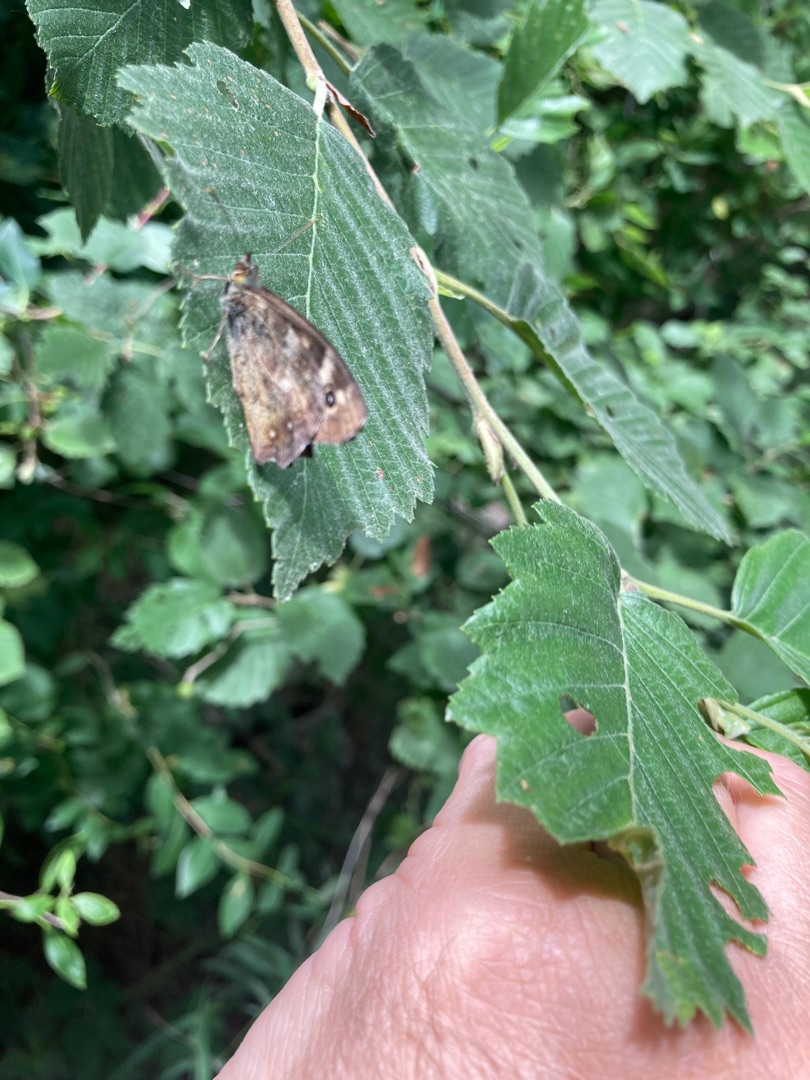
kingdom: Animalia
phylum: Arthropoda
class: Insecta
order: Lepidoptera
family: Nymphalidae
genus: Pararge
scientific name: Pararge aegeria
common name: Skovrandøje
